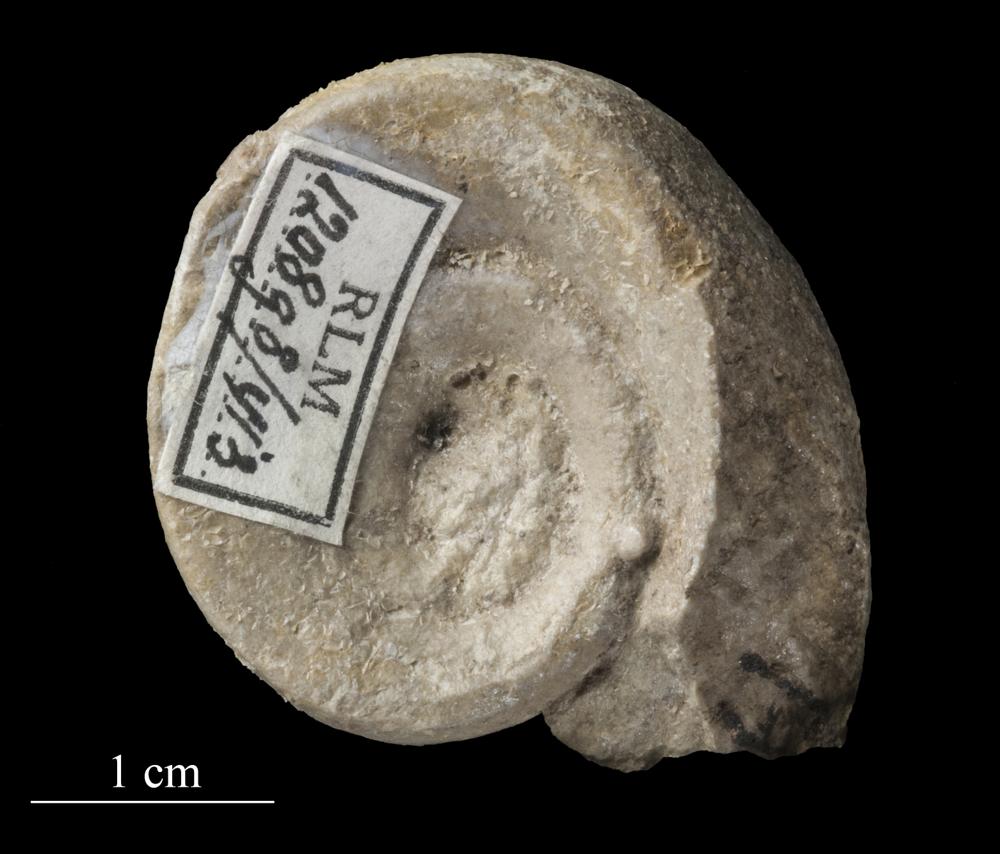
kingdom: Animalia
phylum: Mollusca
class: Gastropoda
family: Lesueurillidae
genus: Mestoronema
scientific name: Mestoronema Euomphalus marginalis
